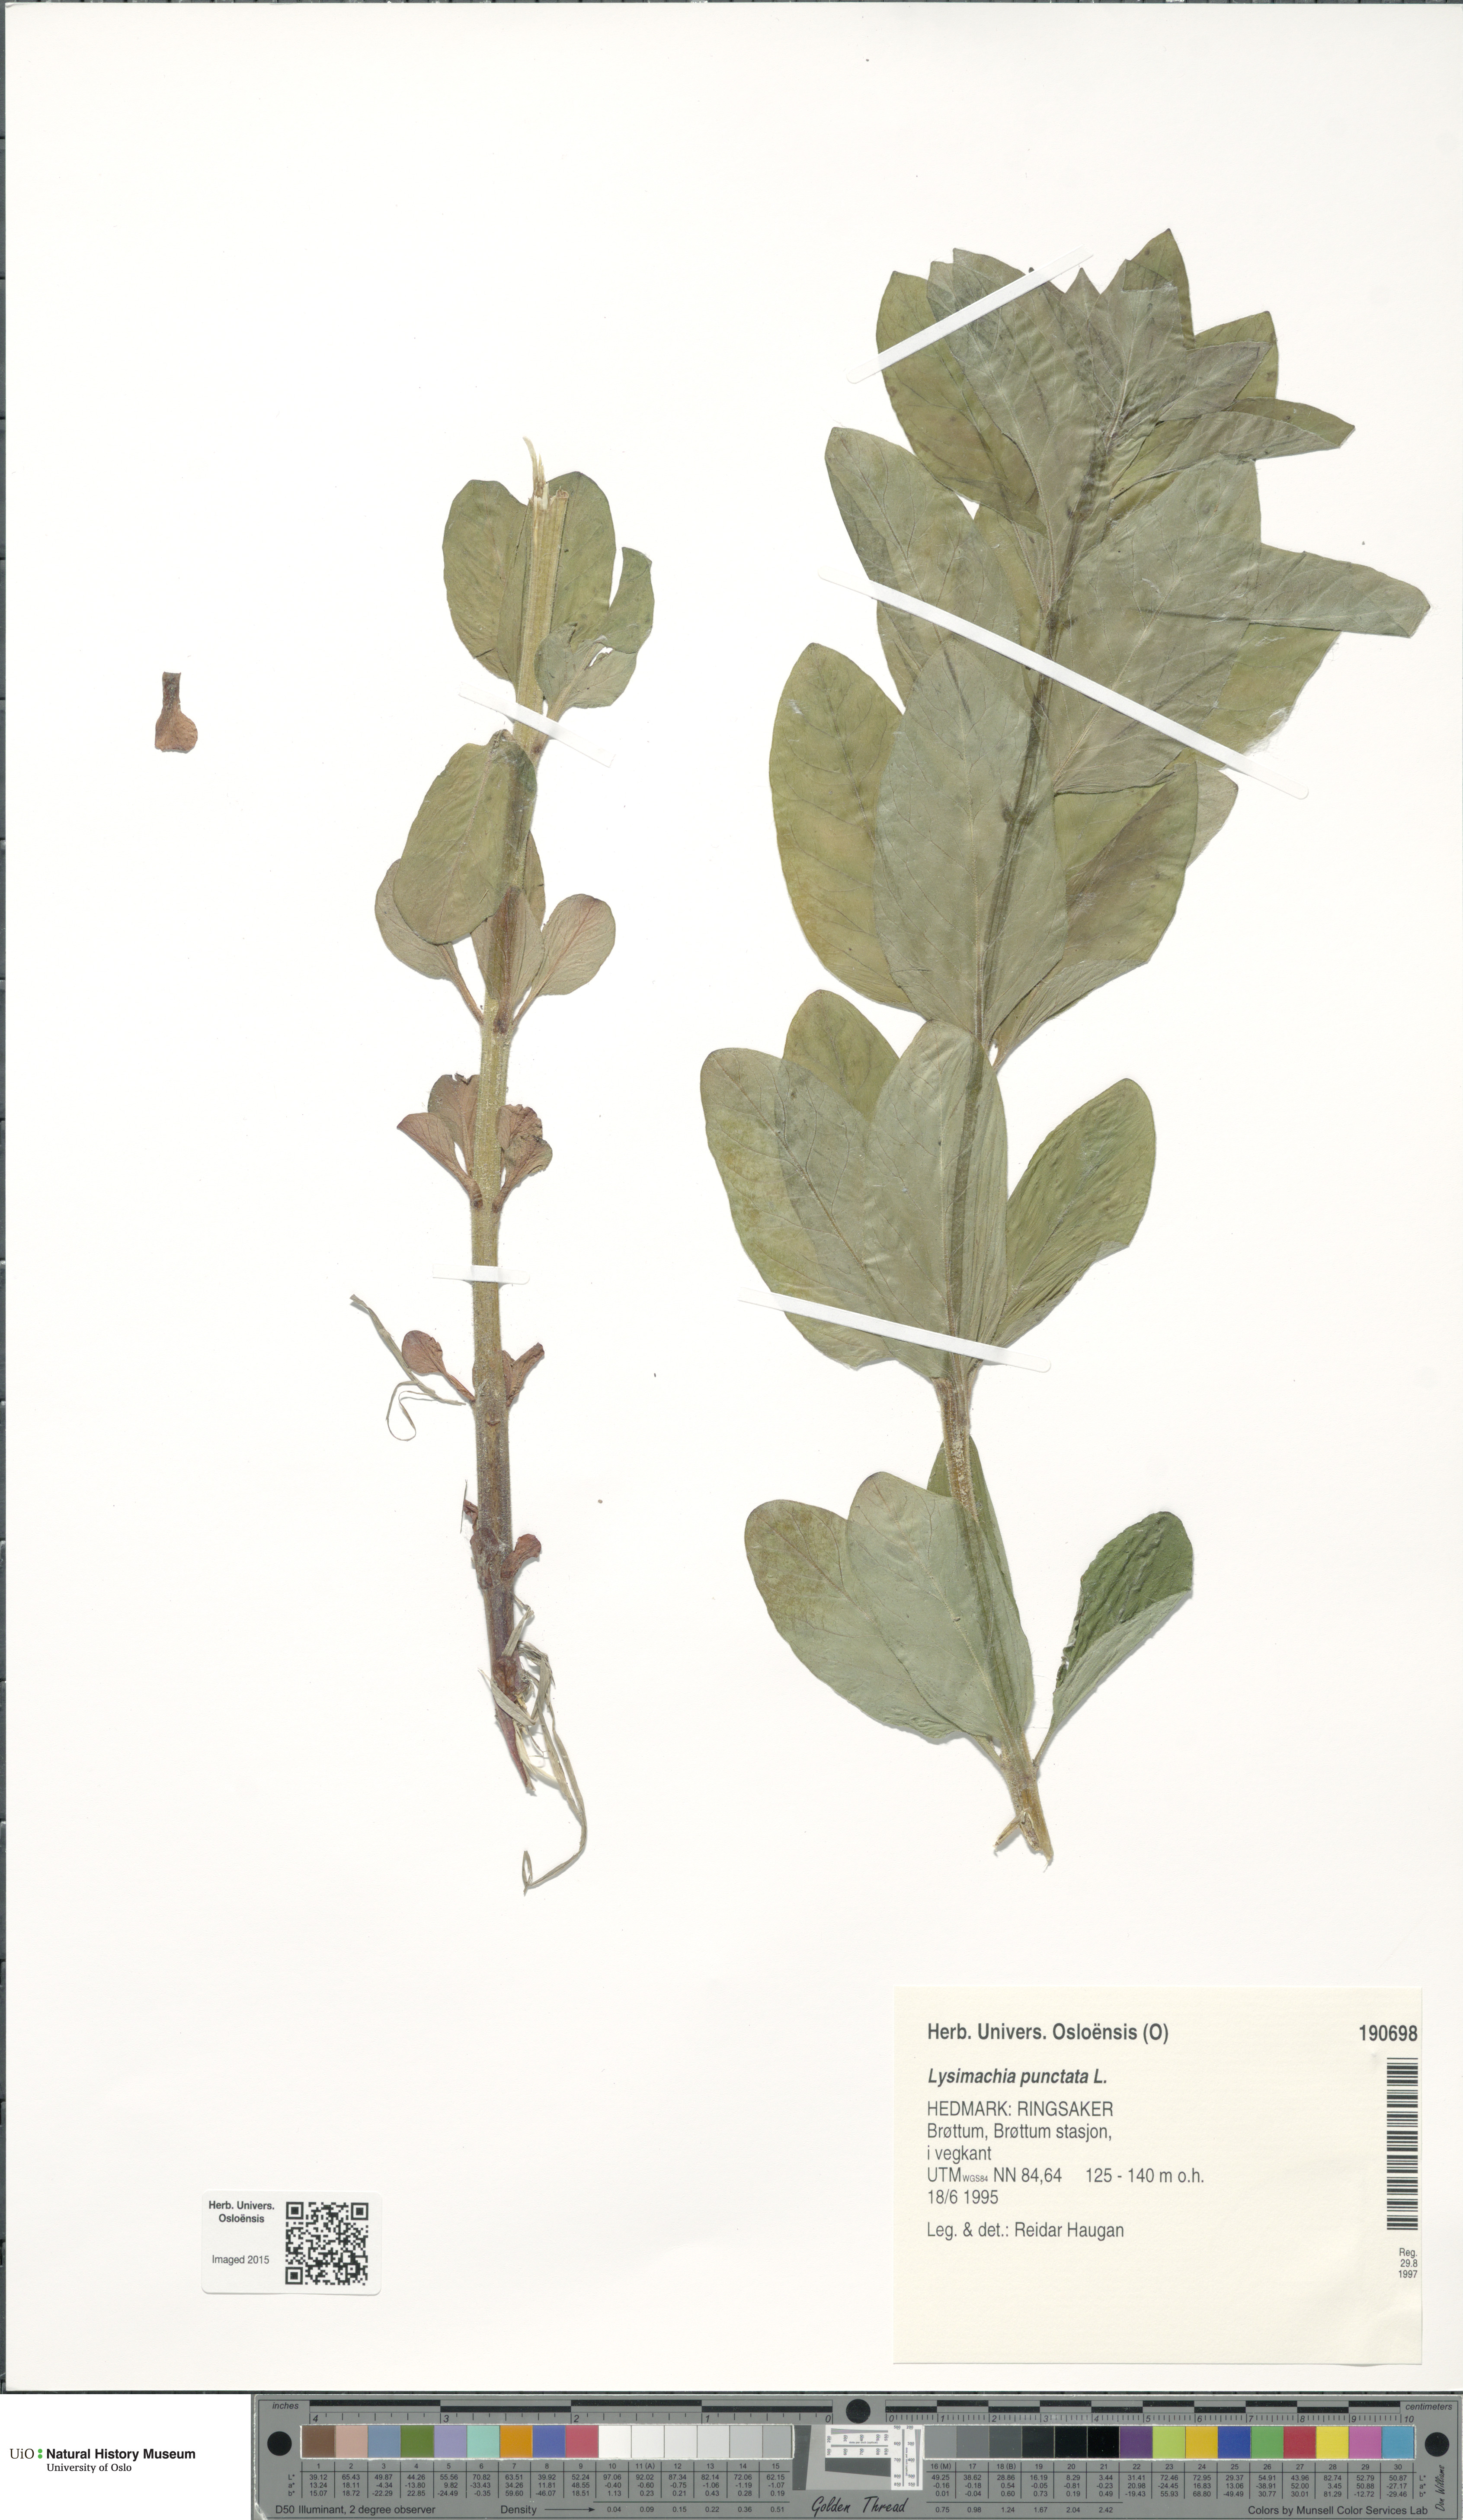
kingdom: Plantae
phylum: Tracheophyta
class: Magnoliopsida
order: Ericales
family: Primulaceae
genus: Lysimachia
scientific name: Lysimachia punctata
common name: Dotted loosestrife
